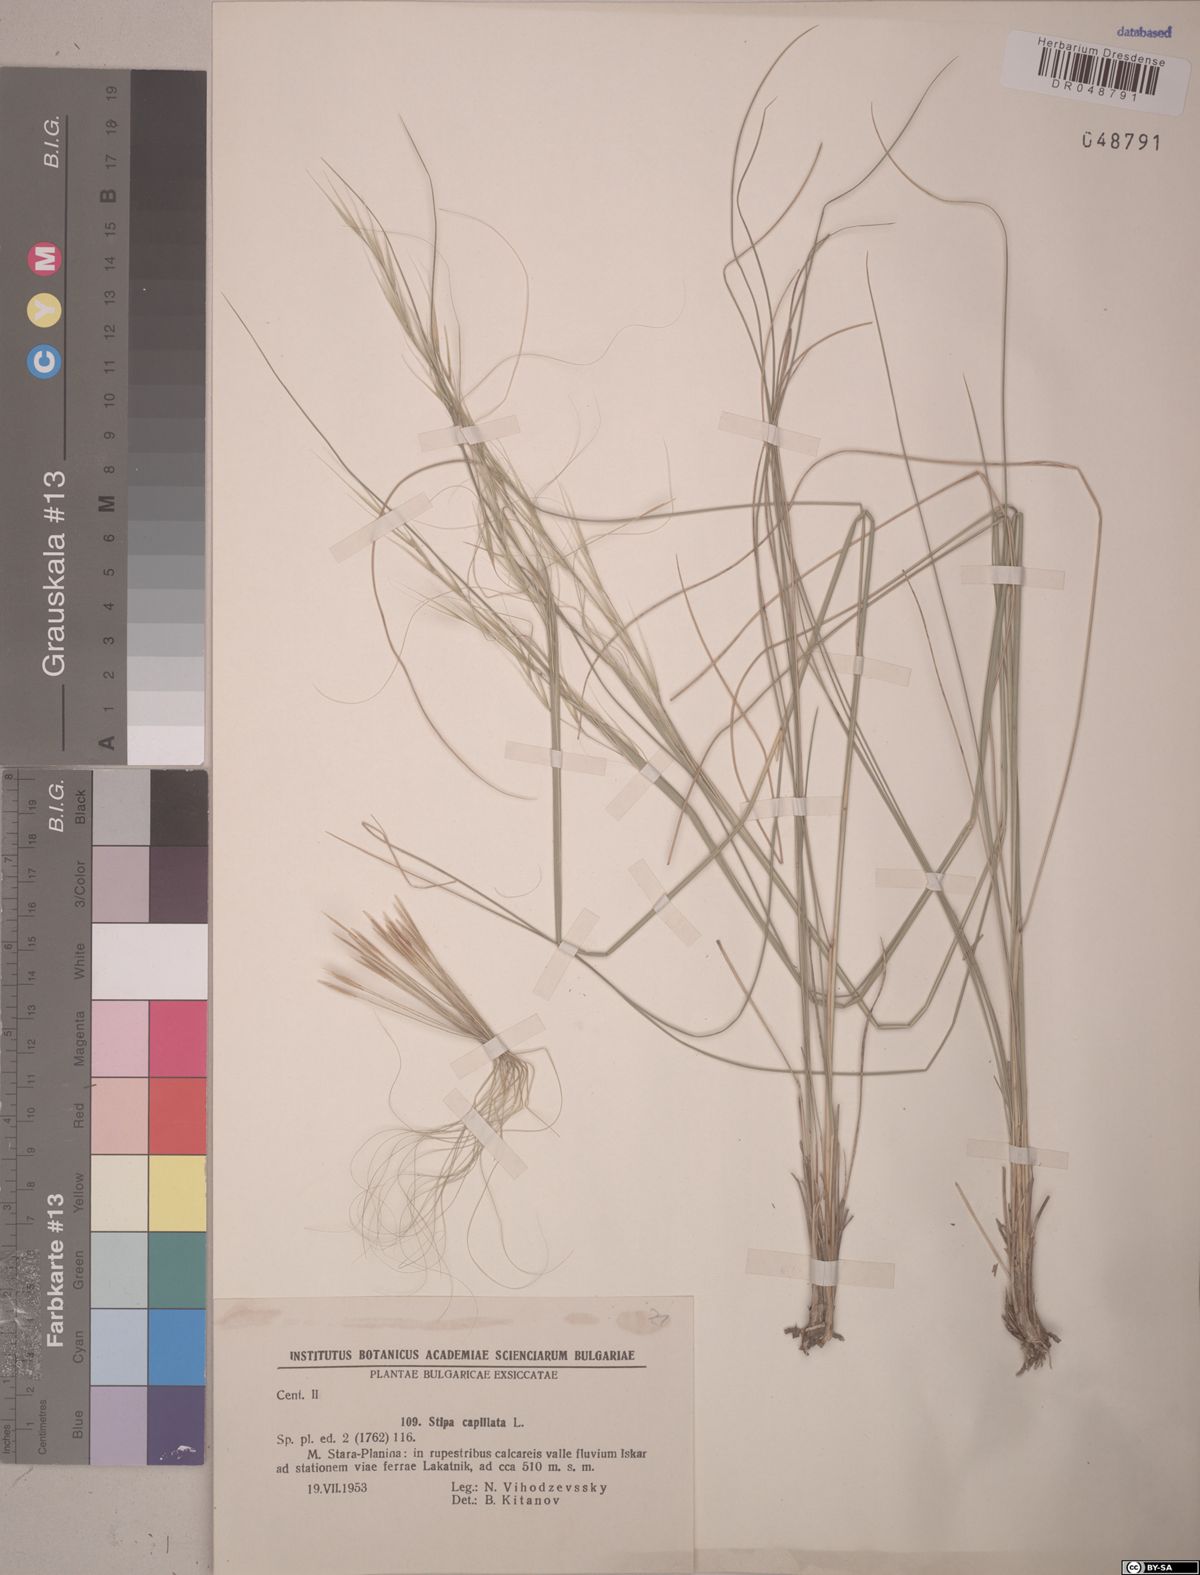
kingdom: Plantae
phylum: Tracheophyta
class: Liliopsida
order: Poales
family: Poaceae
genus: Stipa
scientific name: Stipa capillata
